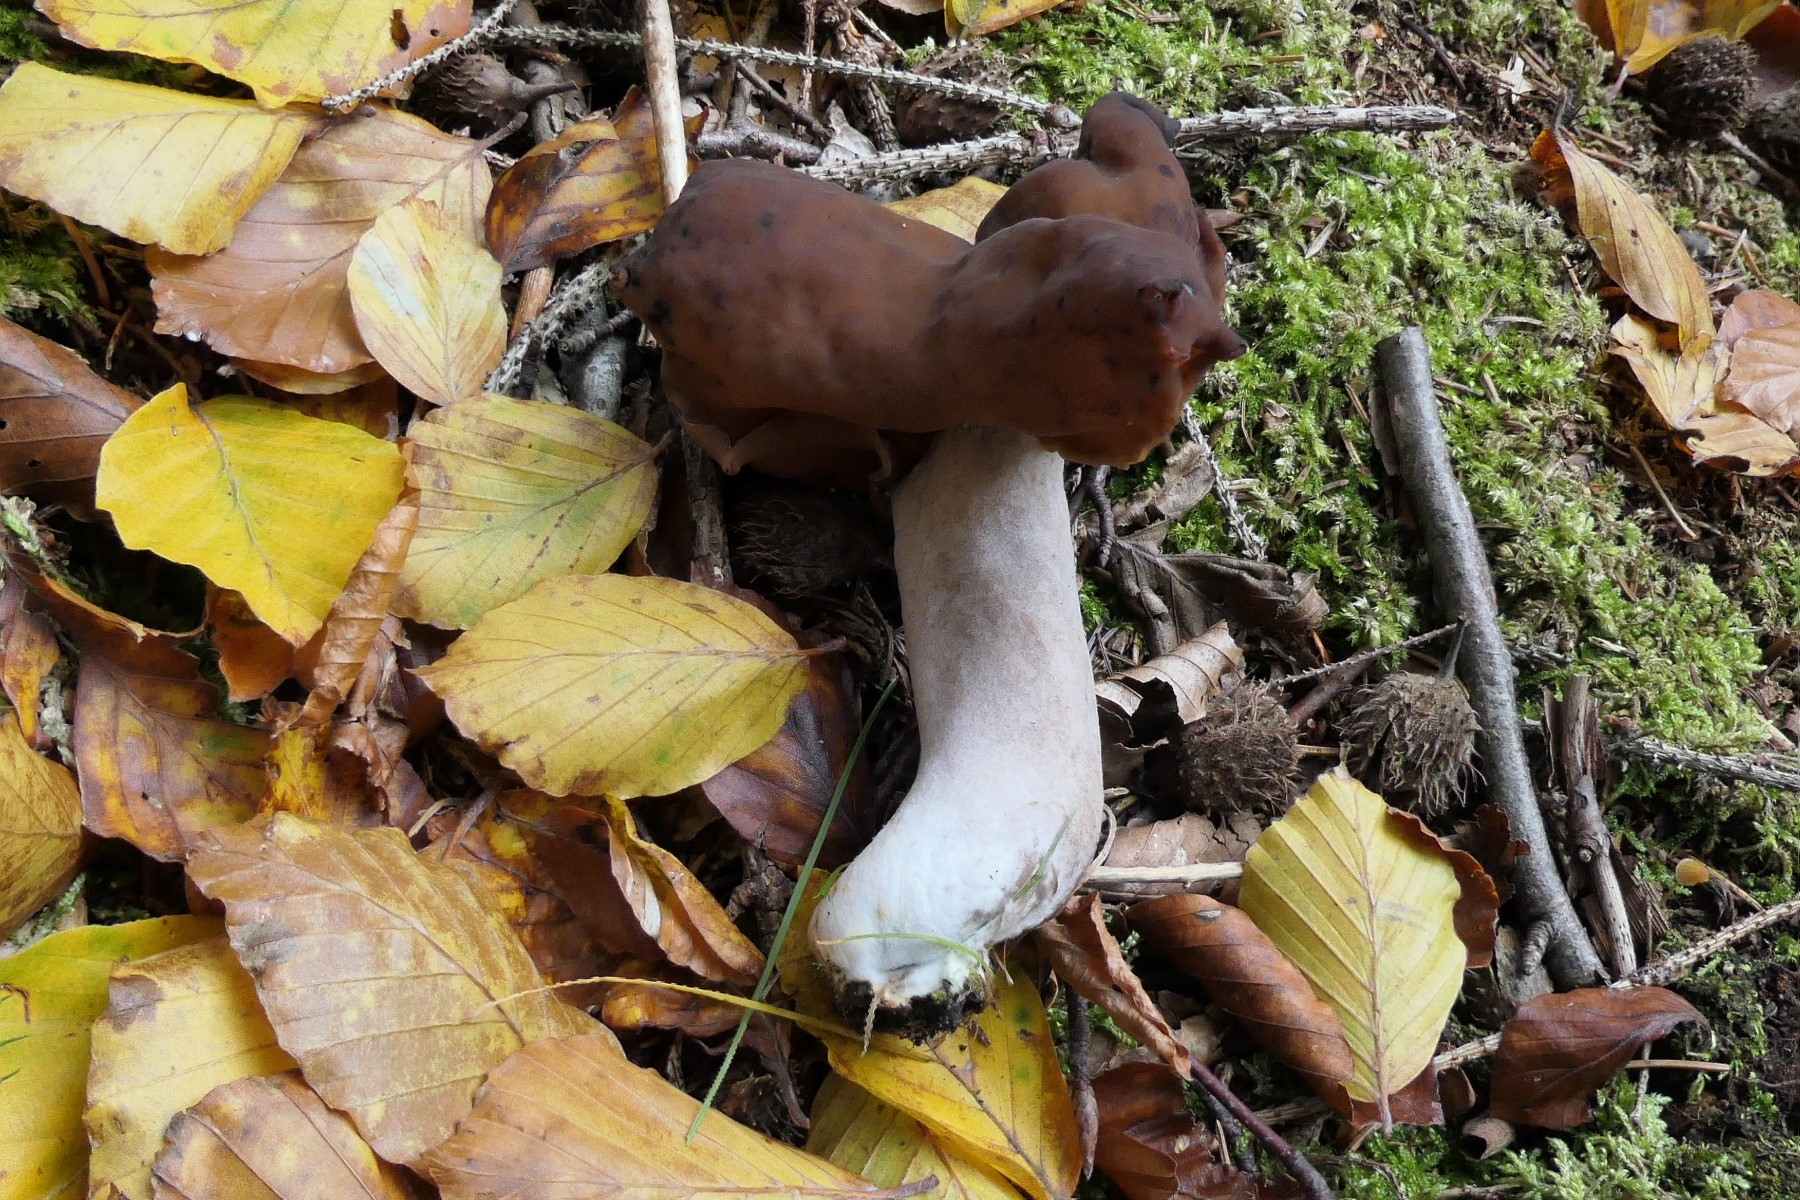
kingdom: Fungi
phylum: Ascomycota
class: Pezizomycetes
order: Pezizales
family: Discinaceae
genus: Gyromitra
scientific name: Gyromitra infula
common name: bispehue-stenmorkel
